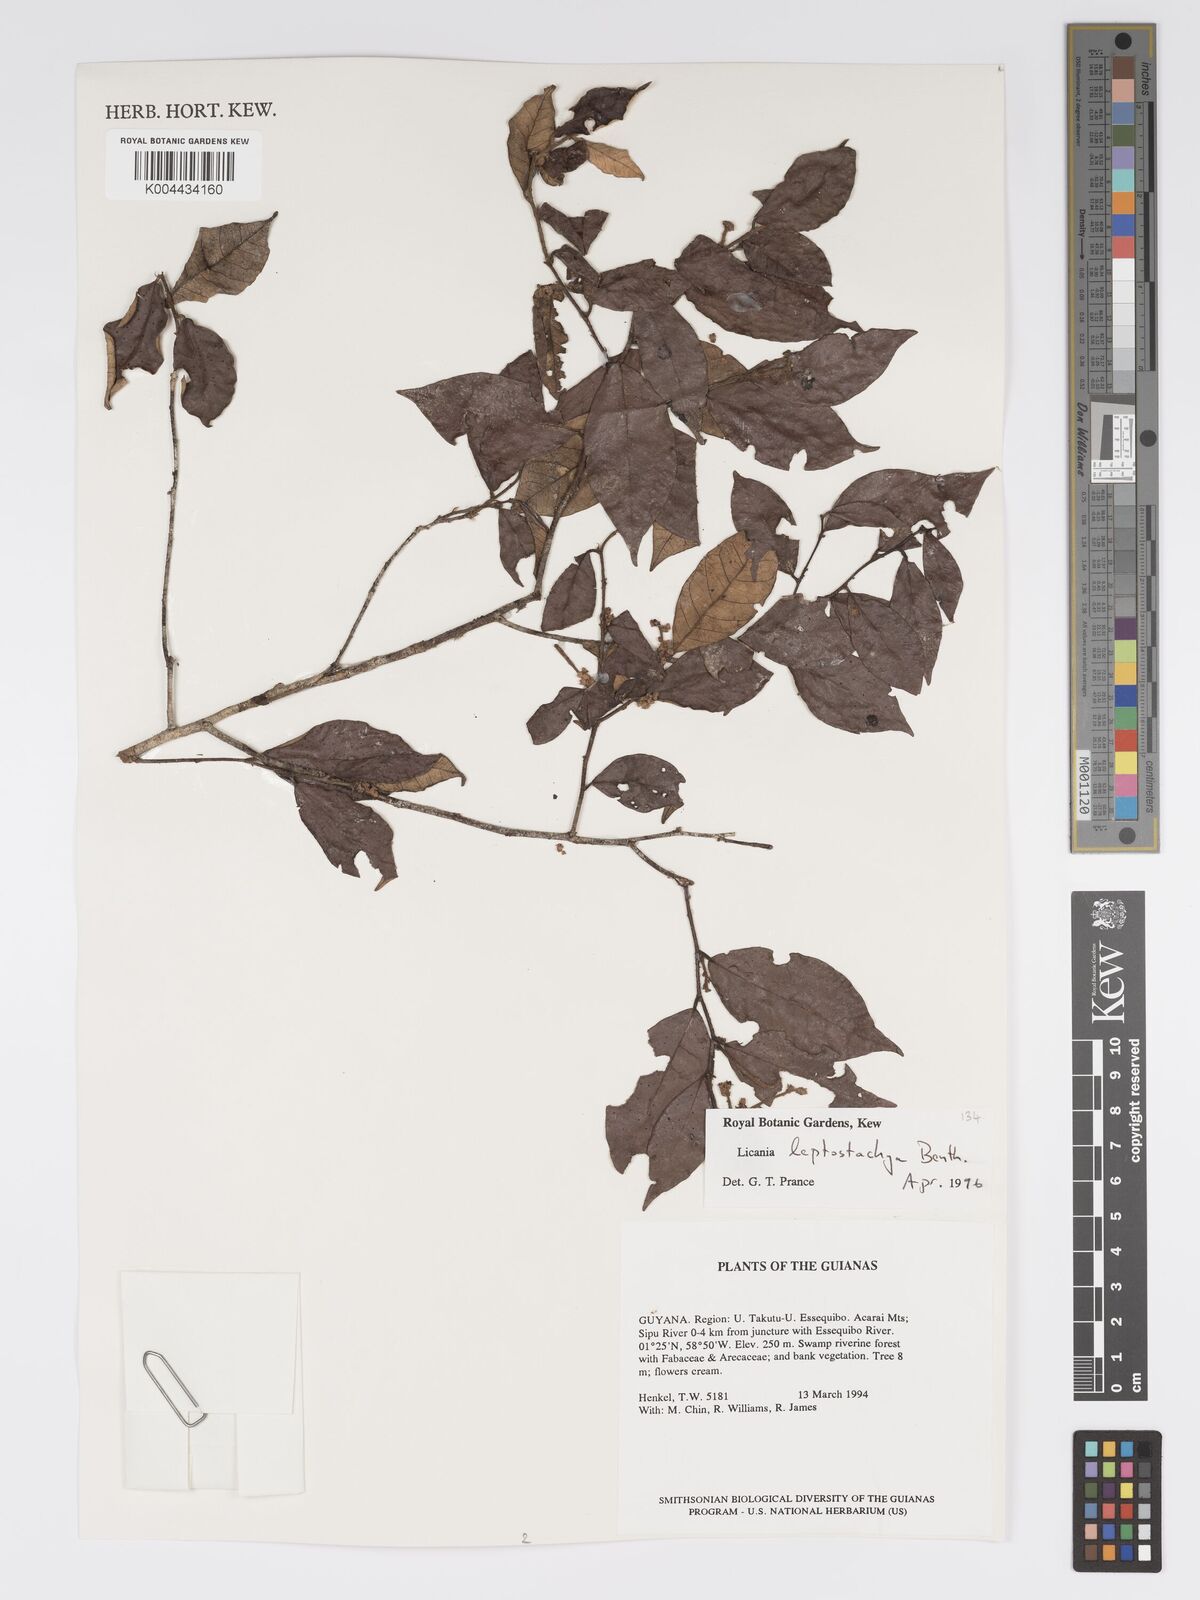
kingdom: Plantae
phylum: Tracheophyta
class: Magnoliopsida
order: Malpighiales
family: Chrysobalanaceae
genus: Licania
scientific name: Licania leptostachya
